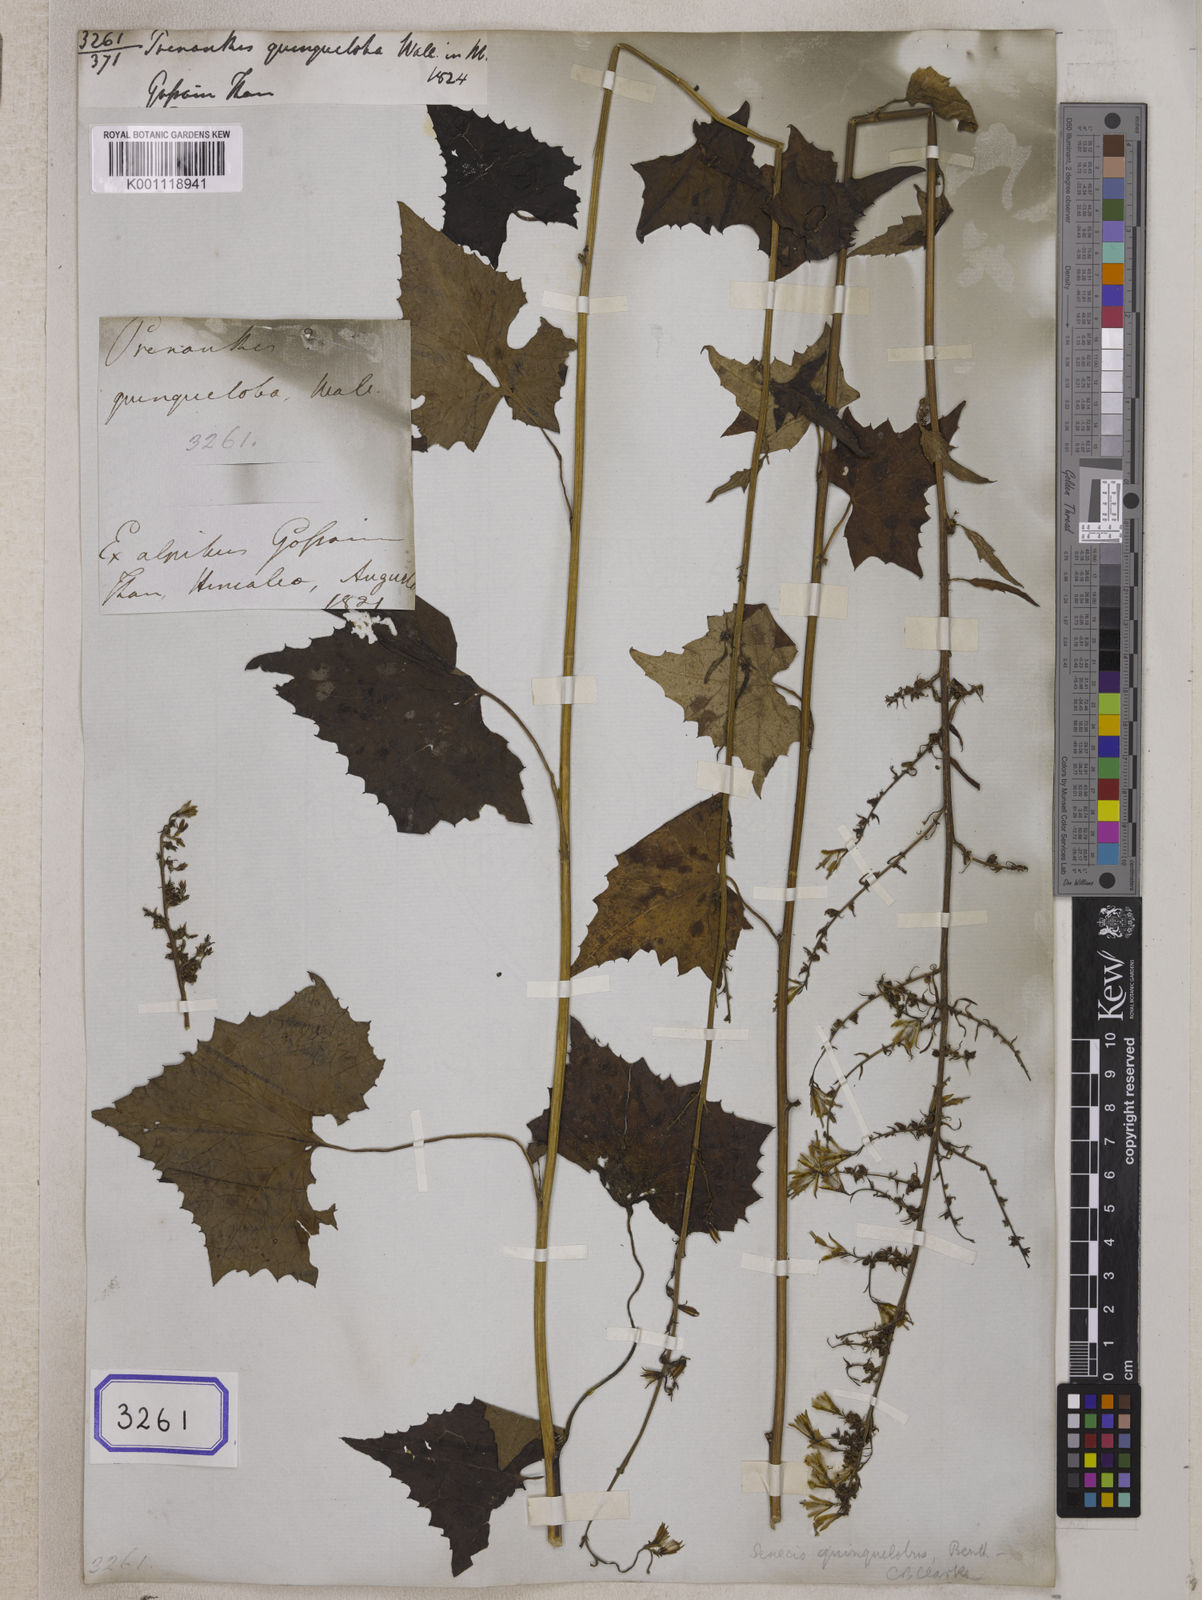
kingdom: Plantae
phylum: Tracheophyta
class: Magnoliopsida
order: Asterales
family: Asteraceae
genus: Parasenecio
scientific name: Parasenecio quinquelobus
